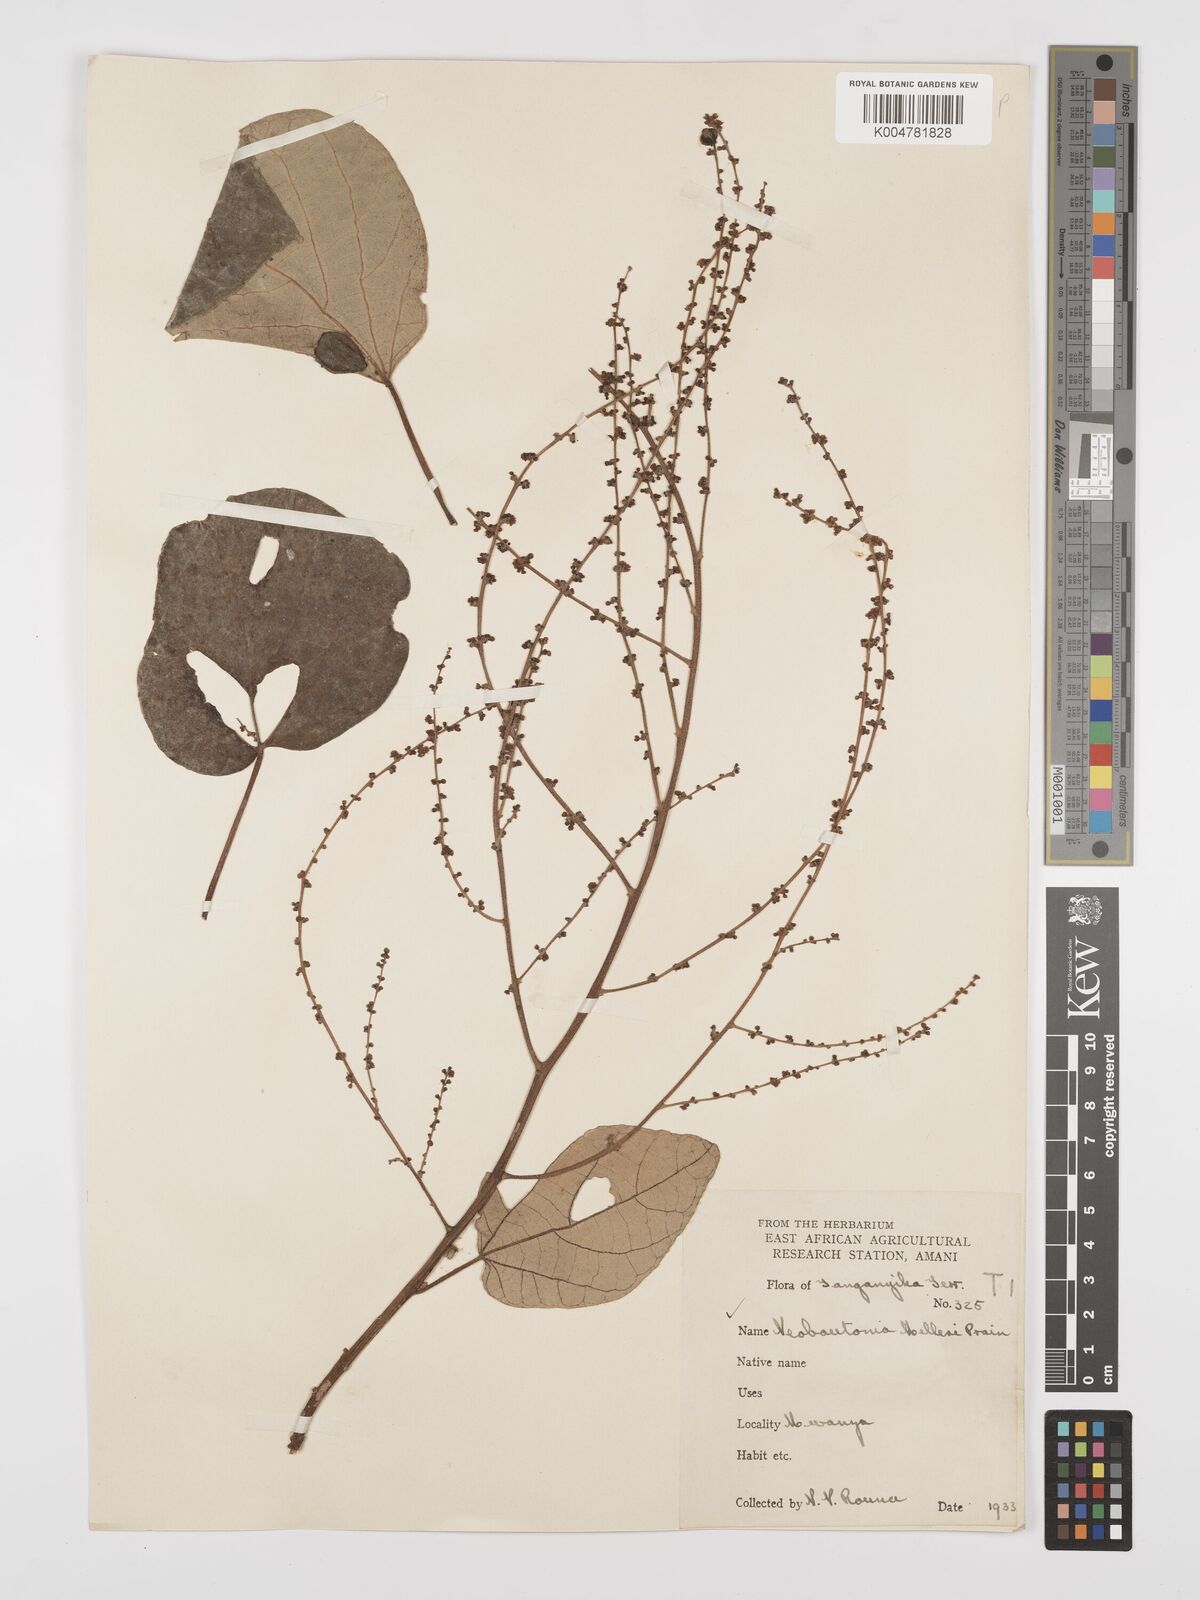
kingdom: Plantae
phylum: Tracheophyta
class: Magnoliopsida
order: Malpighiales
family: Euphorbiaceae
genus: Neoboutonia
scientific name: Neoboutonia melleri
